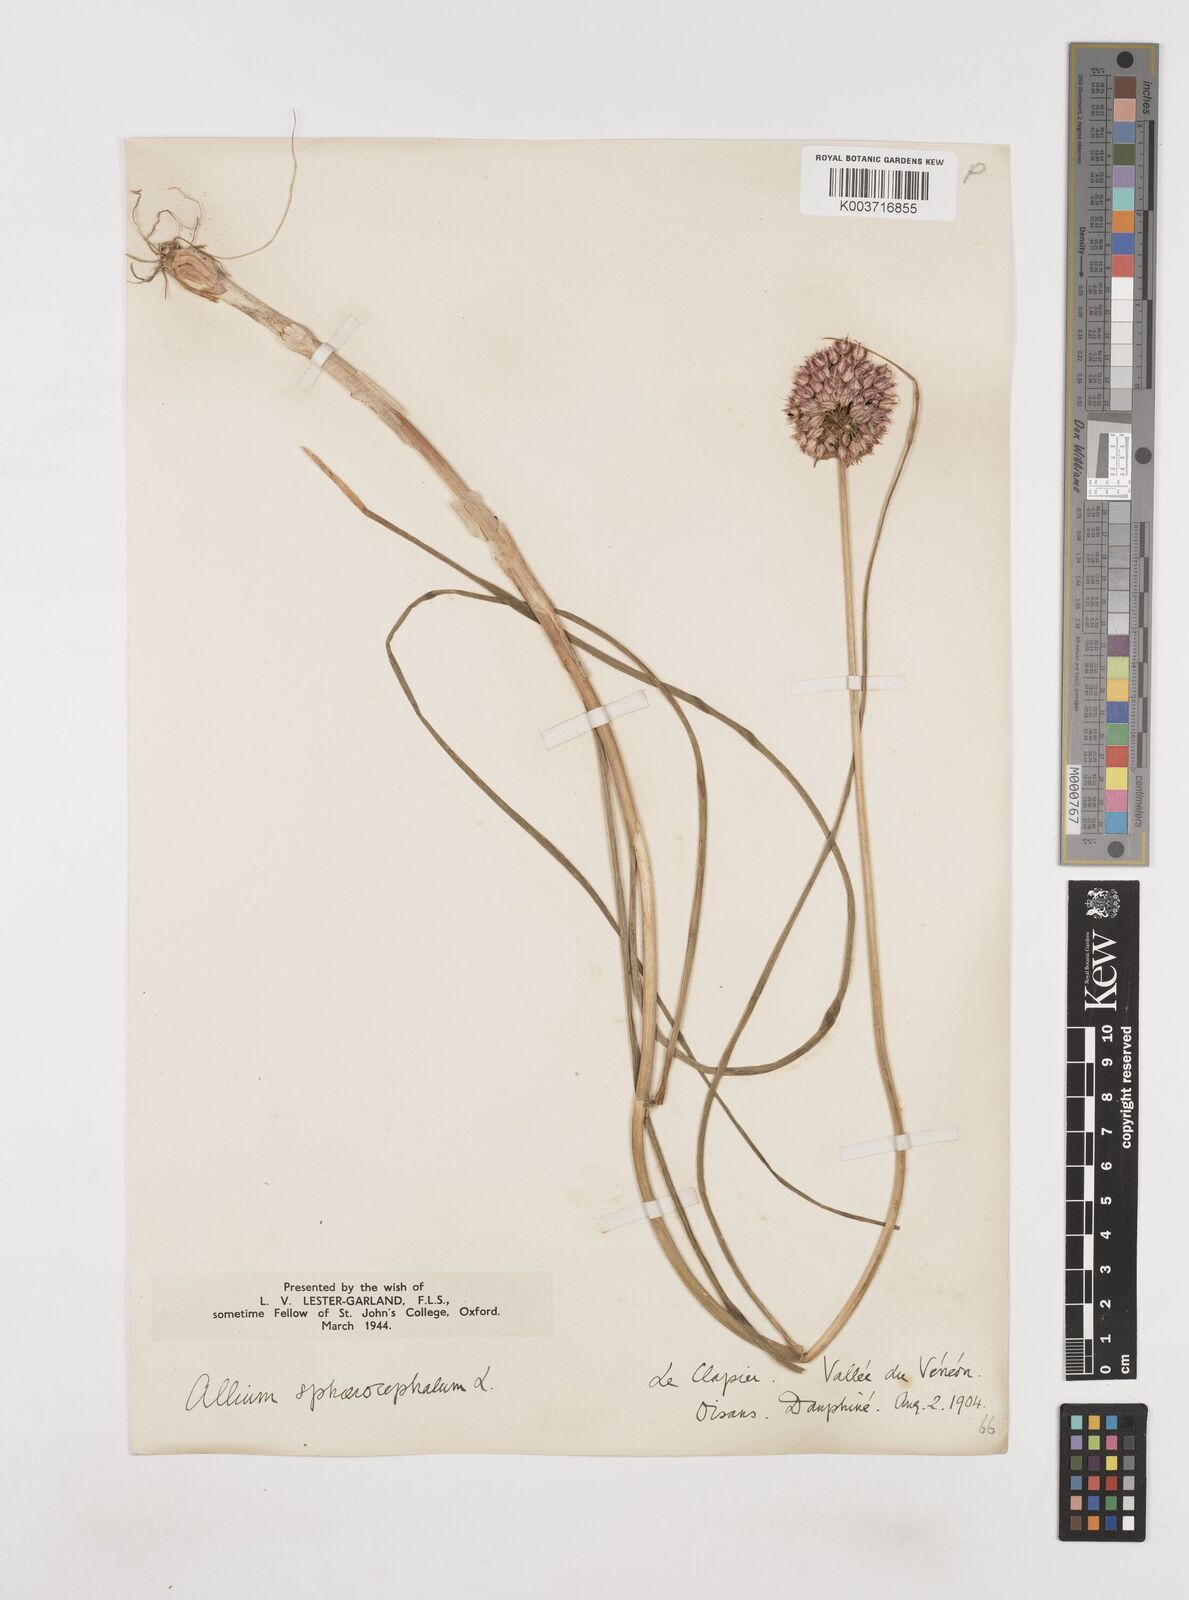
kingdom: Plantae
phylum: Tracheophyta
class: Liliopsida
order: Asparagales
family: Amaryllidaceae
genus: Allium
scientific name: Allium sphaerocephalon
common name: Round-headed leek
